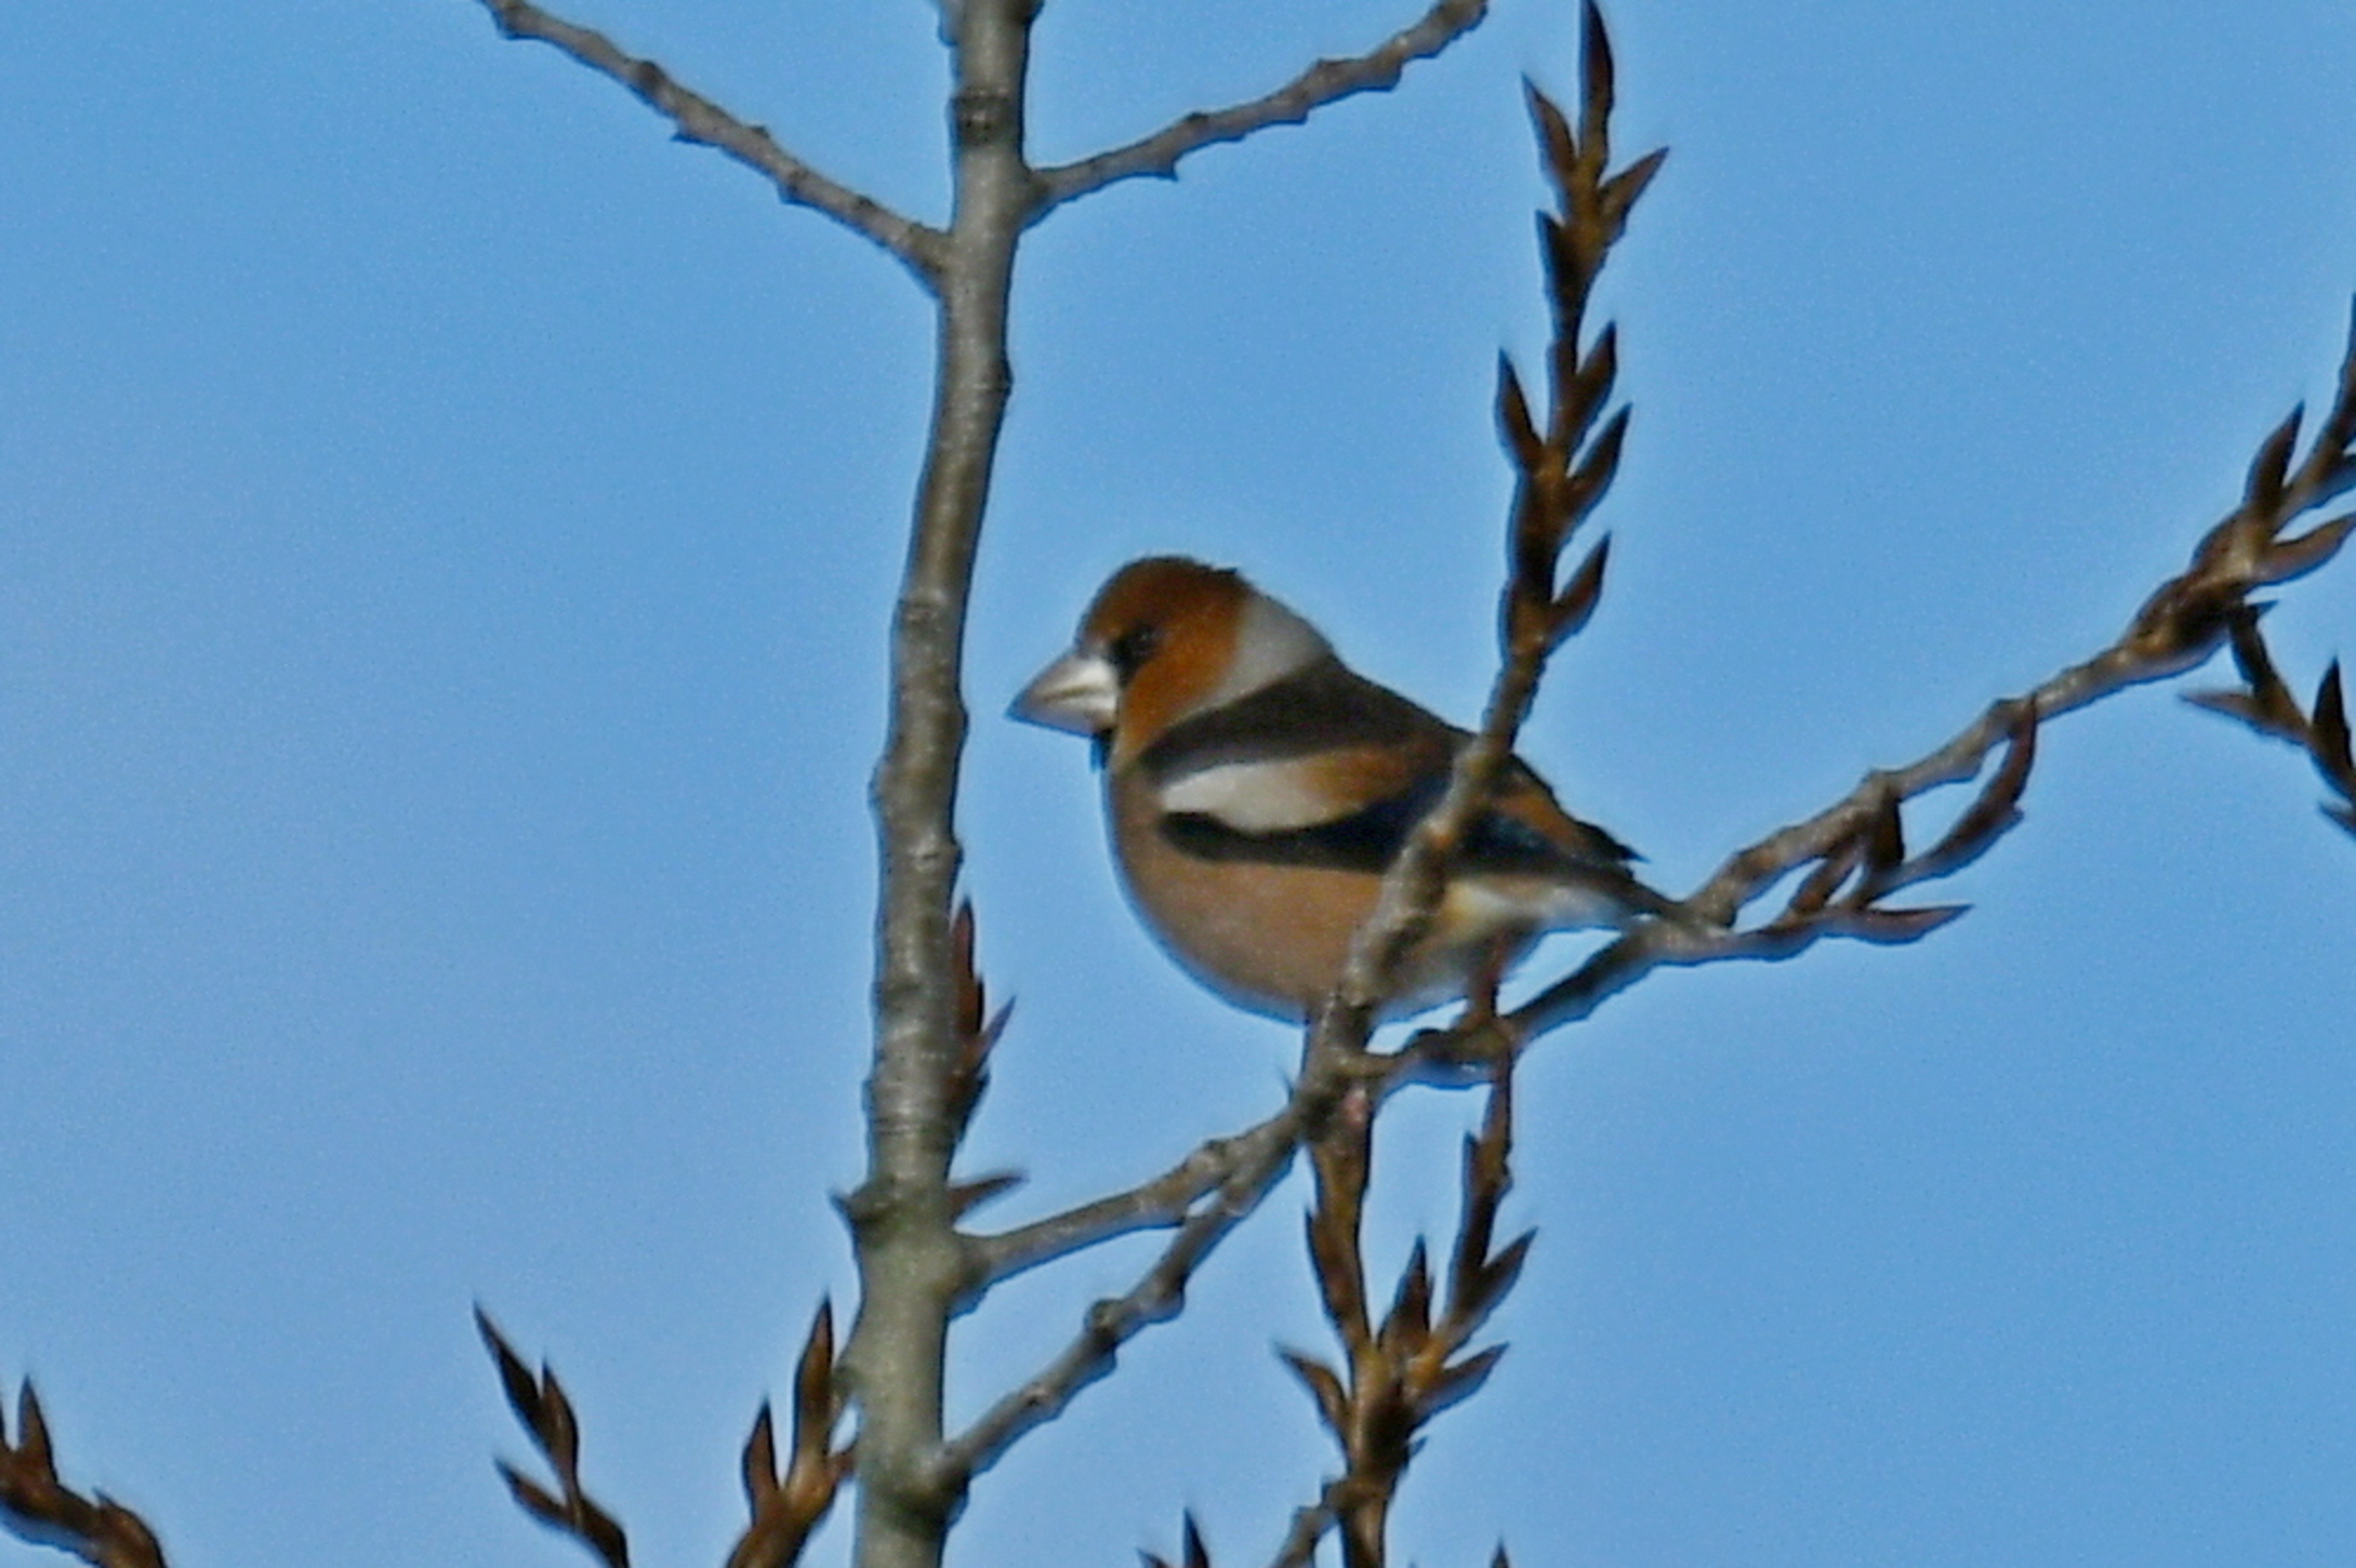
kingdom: Animalia
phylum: Chordata
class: Aves
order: Passeriformes
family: Fringillidae
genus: Coccothraustes
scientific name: Coccothraustes coccothraustes
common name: Kernebider
